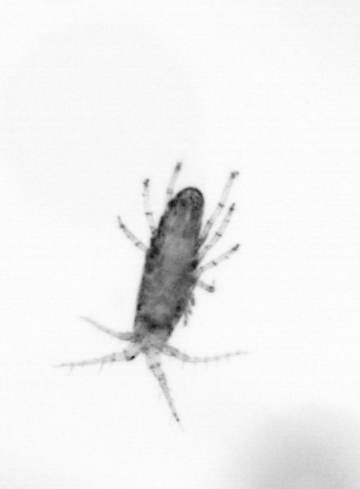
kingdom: Animalia
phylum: Arthropoda
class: Copepoda
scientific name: Copepoda
